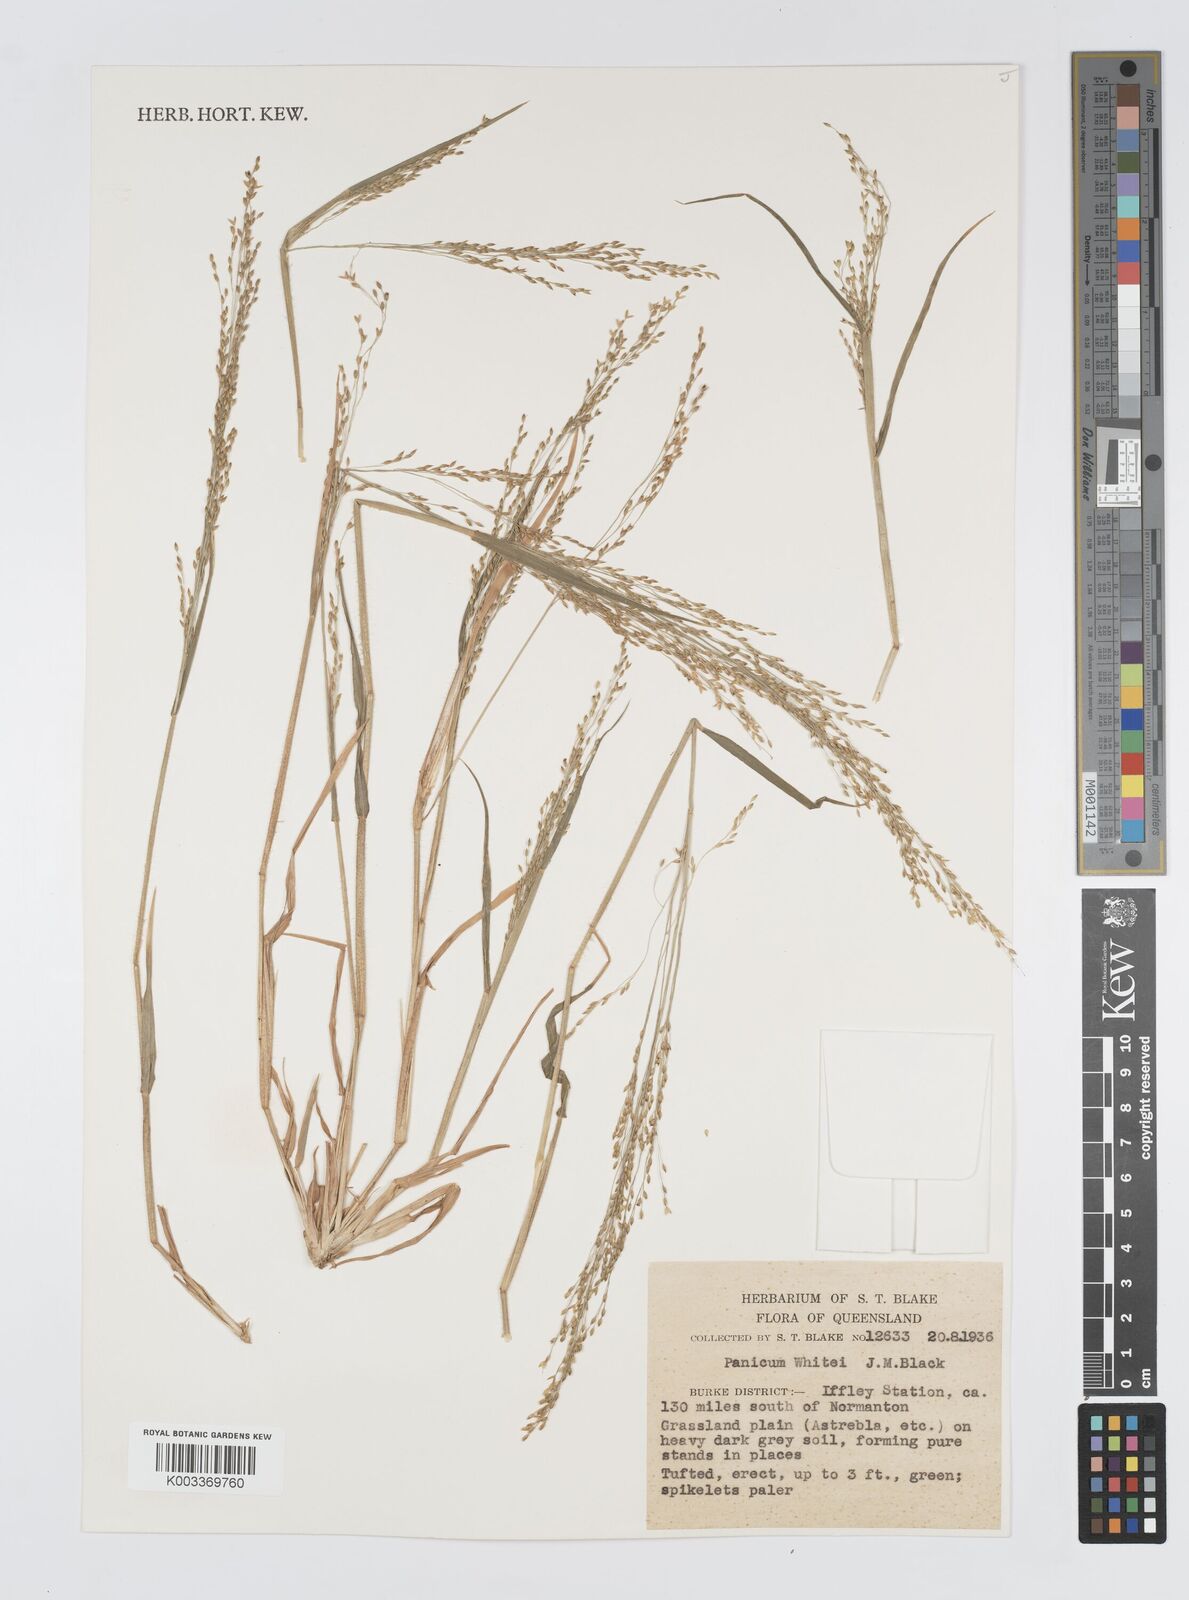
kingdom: Plantae
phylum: Tracheophyta
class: Liliopsida
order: Poales
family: Poaceae
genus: Panicum
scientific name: Panicum laevinode
